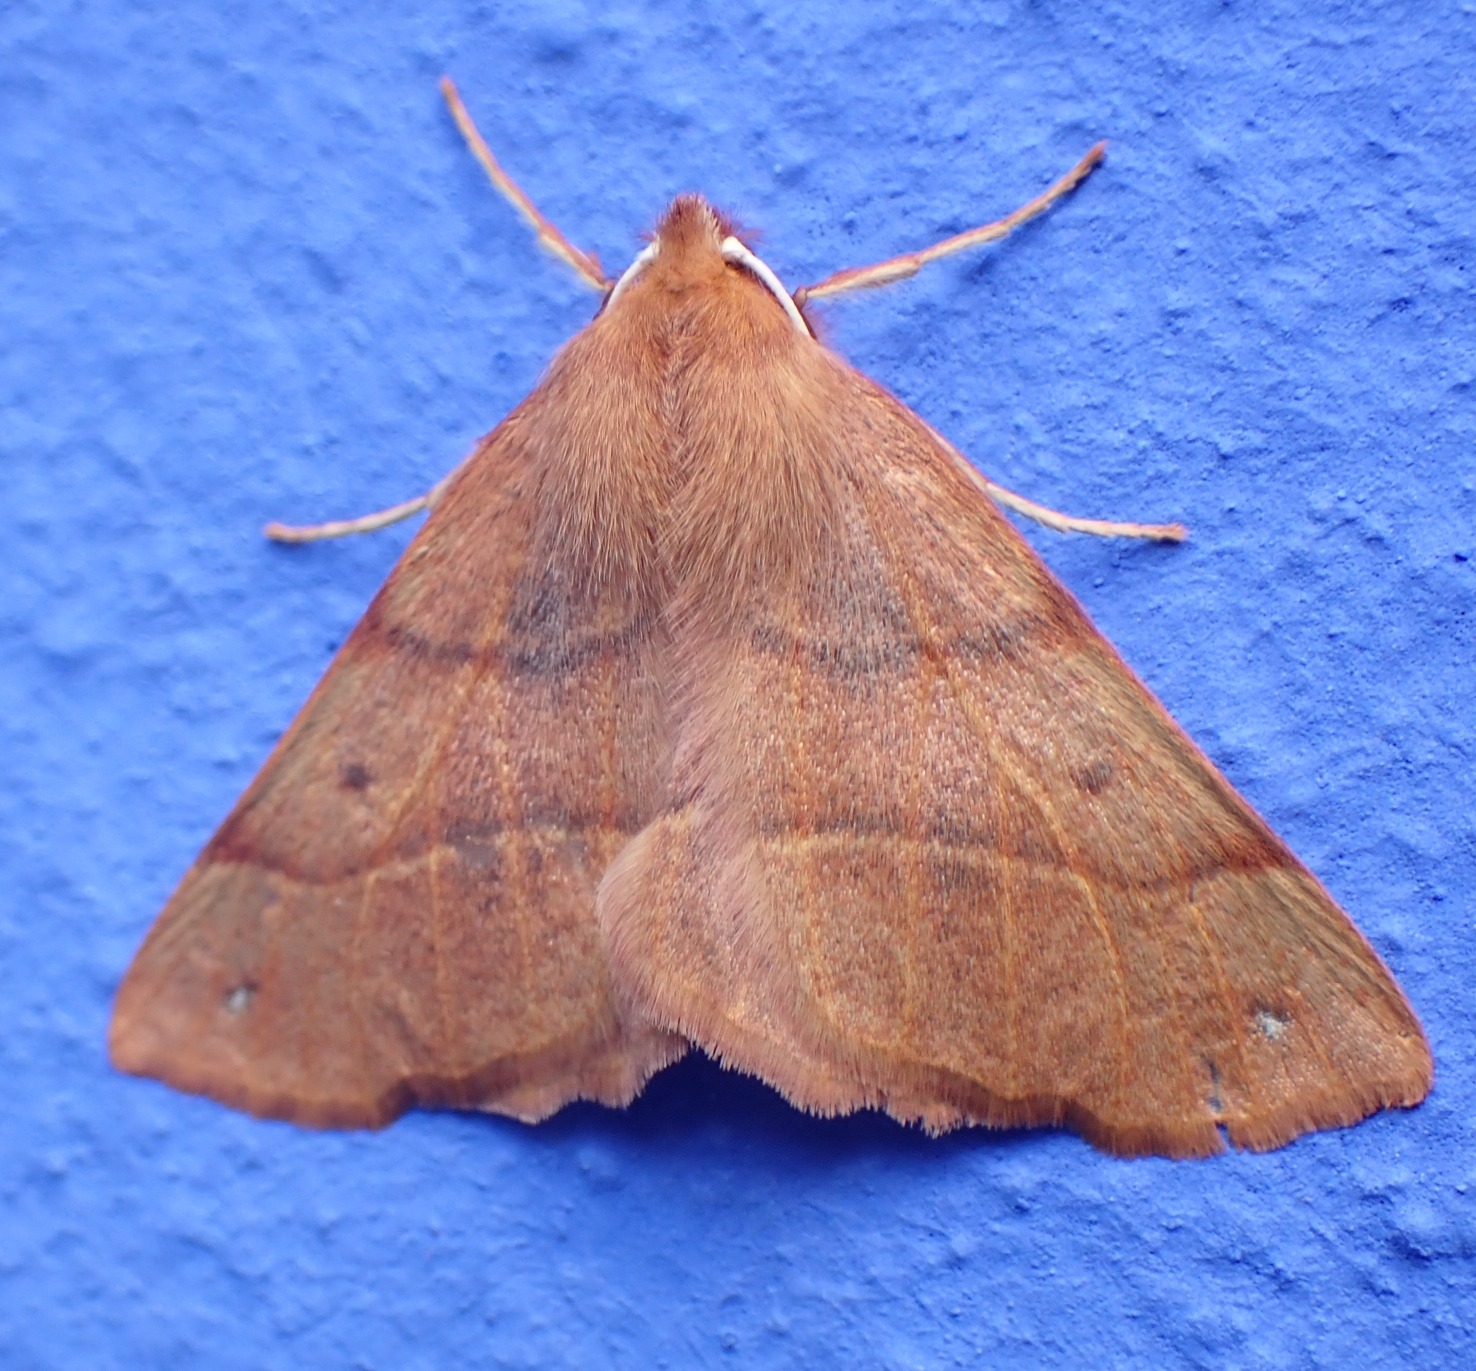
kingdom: Animalia
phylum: Arthropoda
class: Insecta
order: Lepidoptera
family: Geometridae
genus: Colotois
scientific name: Colotois pennaria
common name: Løvfaldsmåler
